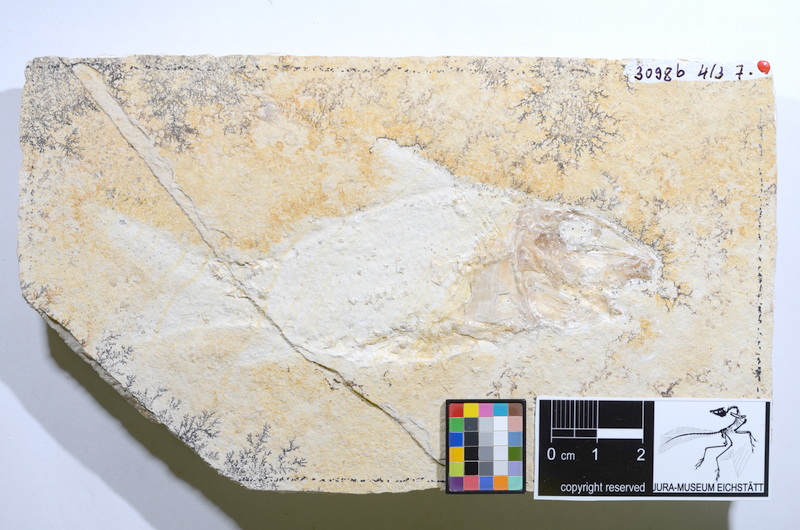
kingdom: Animalia
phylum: Chordata
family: Macrosemiidae
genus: Propterus
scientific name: Propterus microstomus
